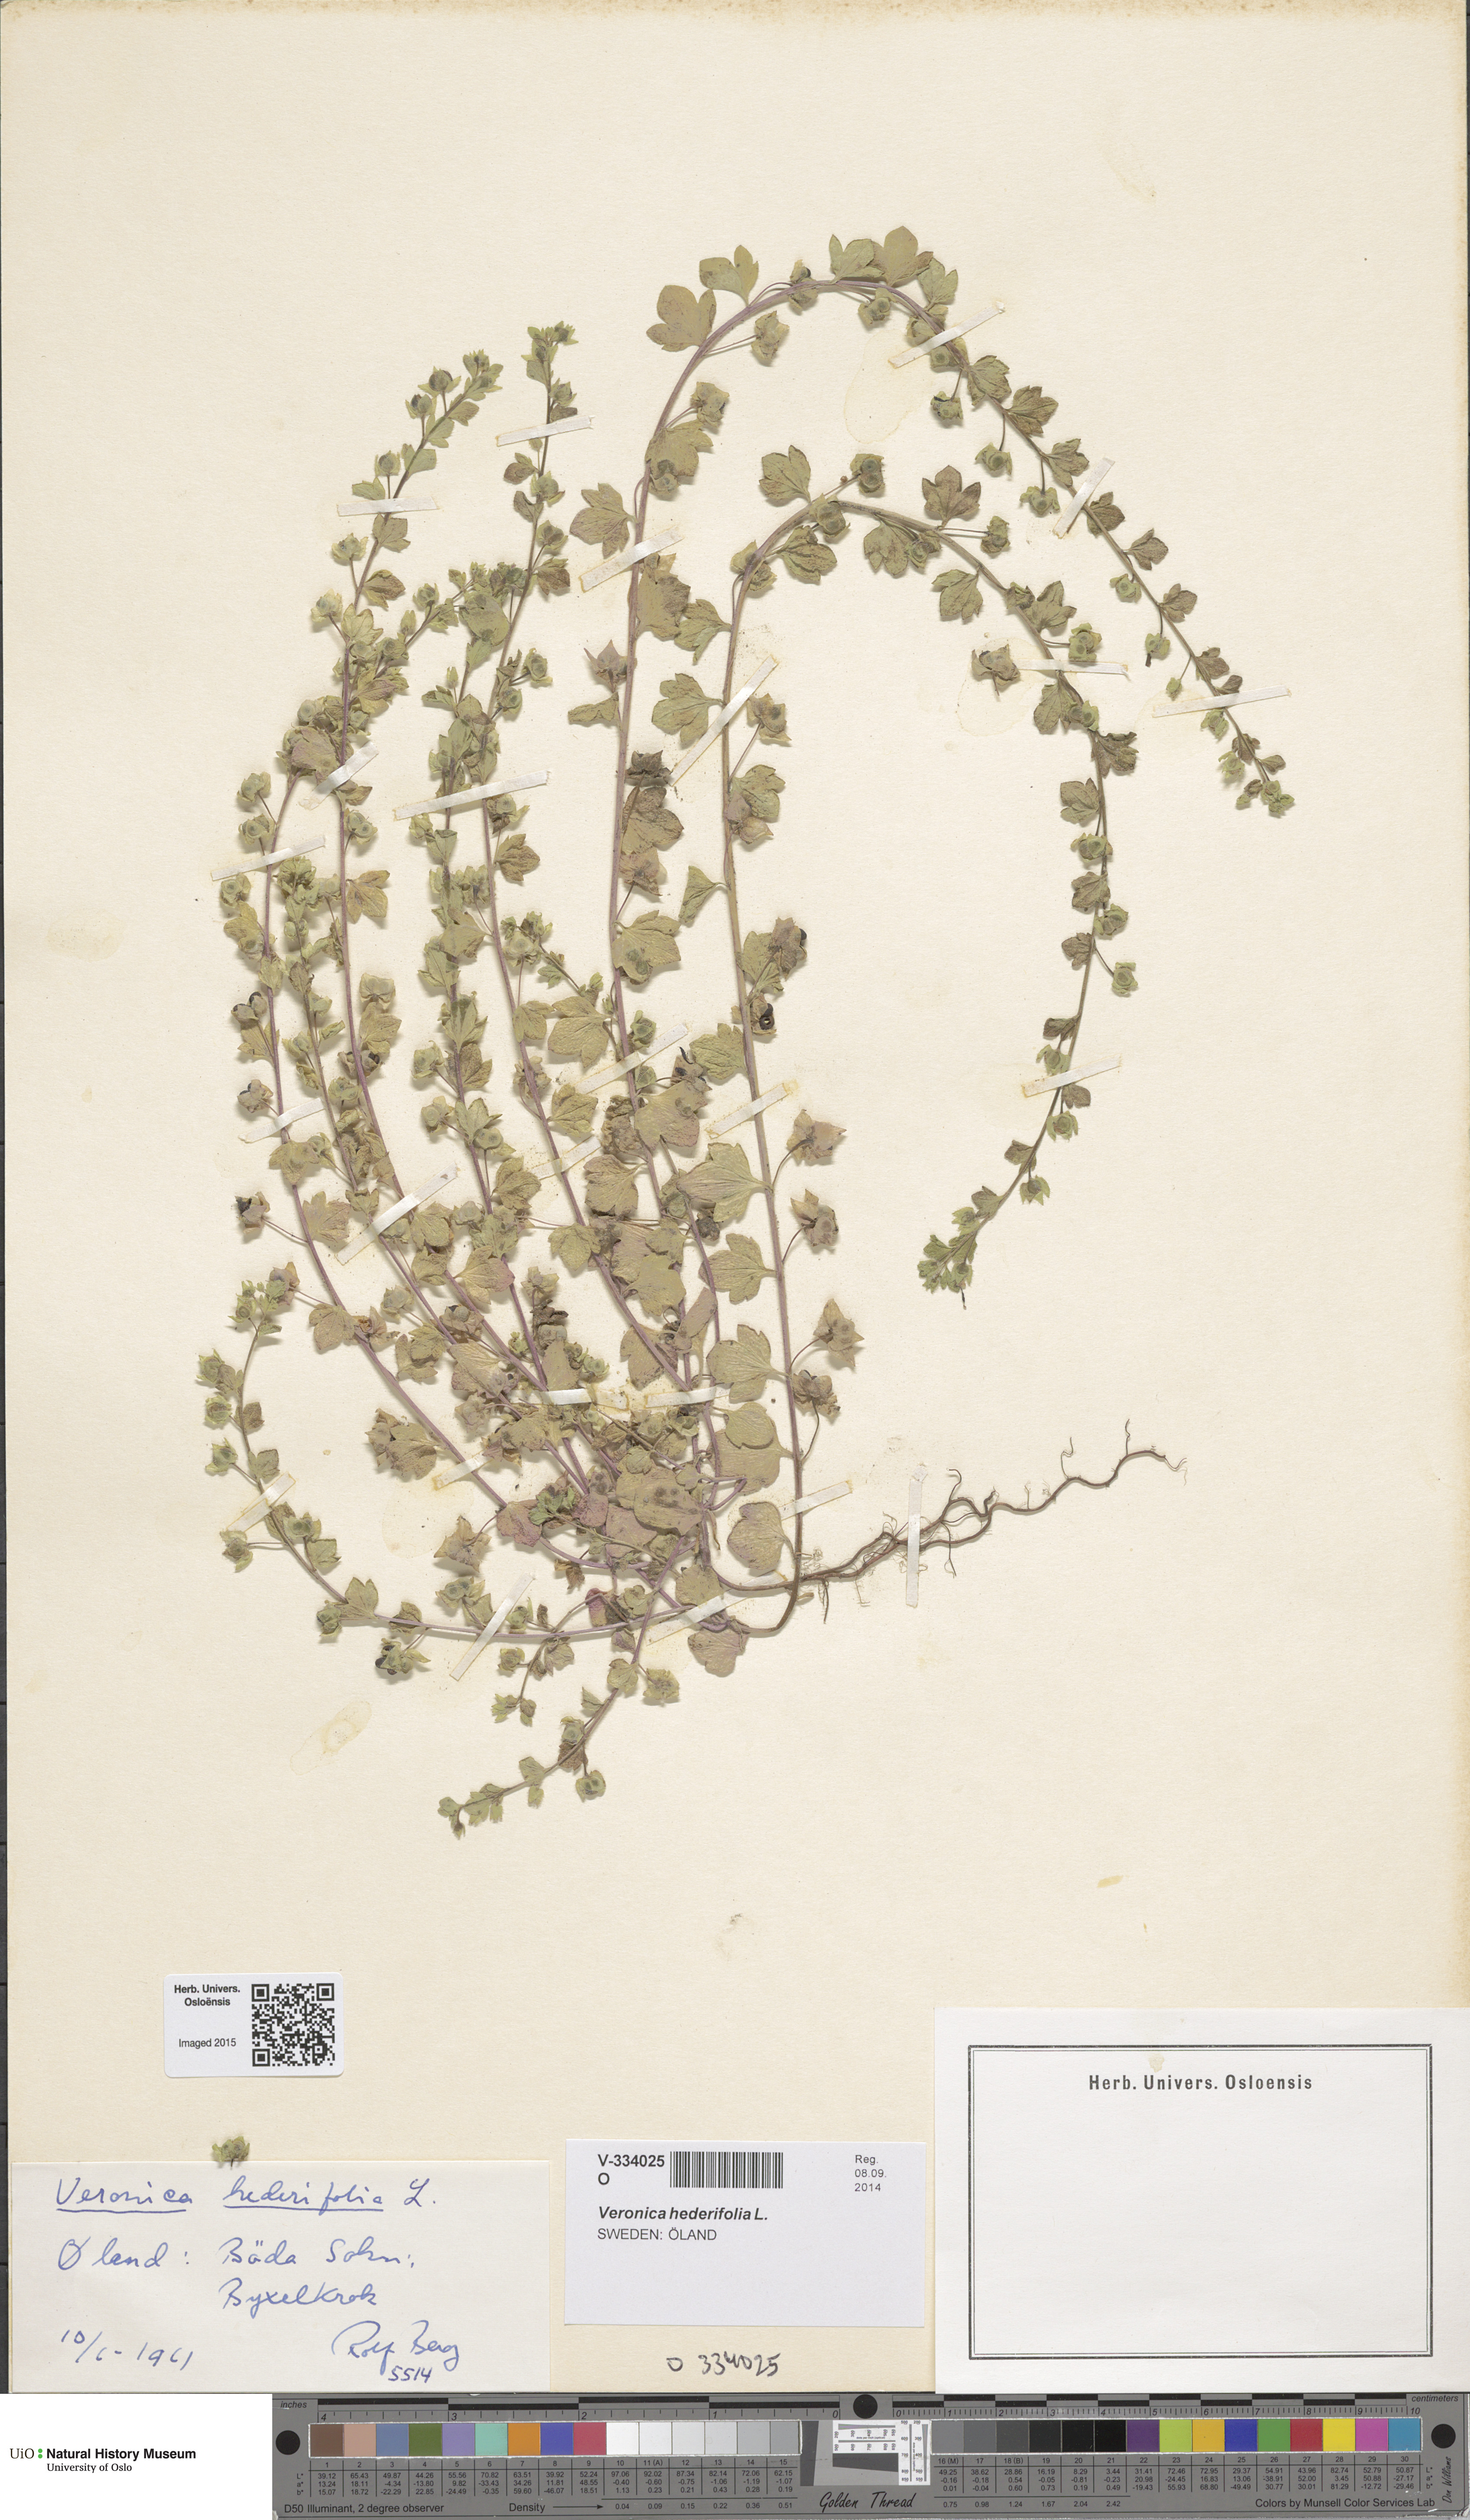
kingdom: Plantae
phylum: Tracheophyta
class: Magnoliopsida
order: Lamiales
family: Plantaginaceae
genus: Veronica
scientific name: Veronica hederifolia
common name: Ivy-leaved speedwell
